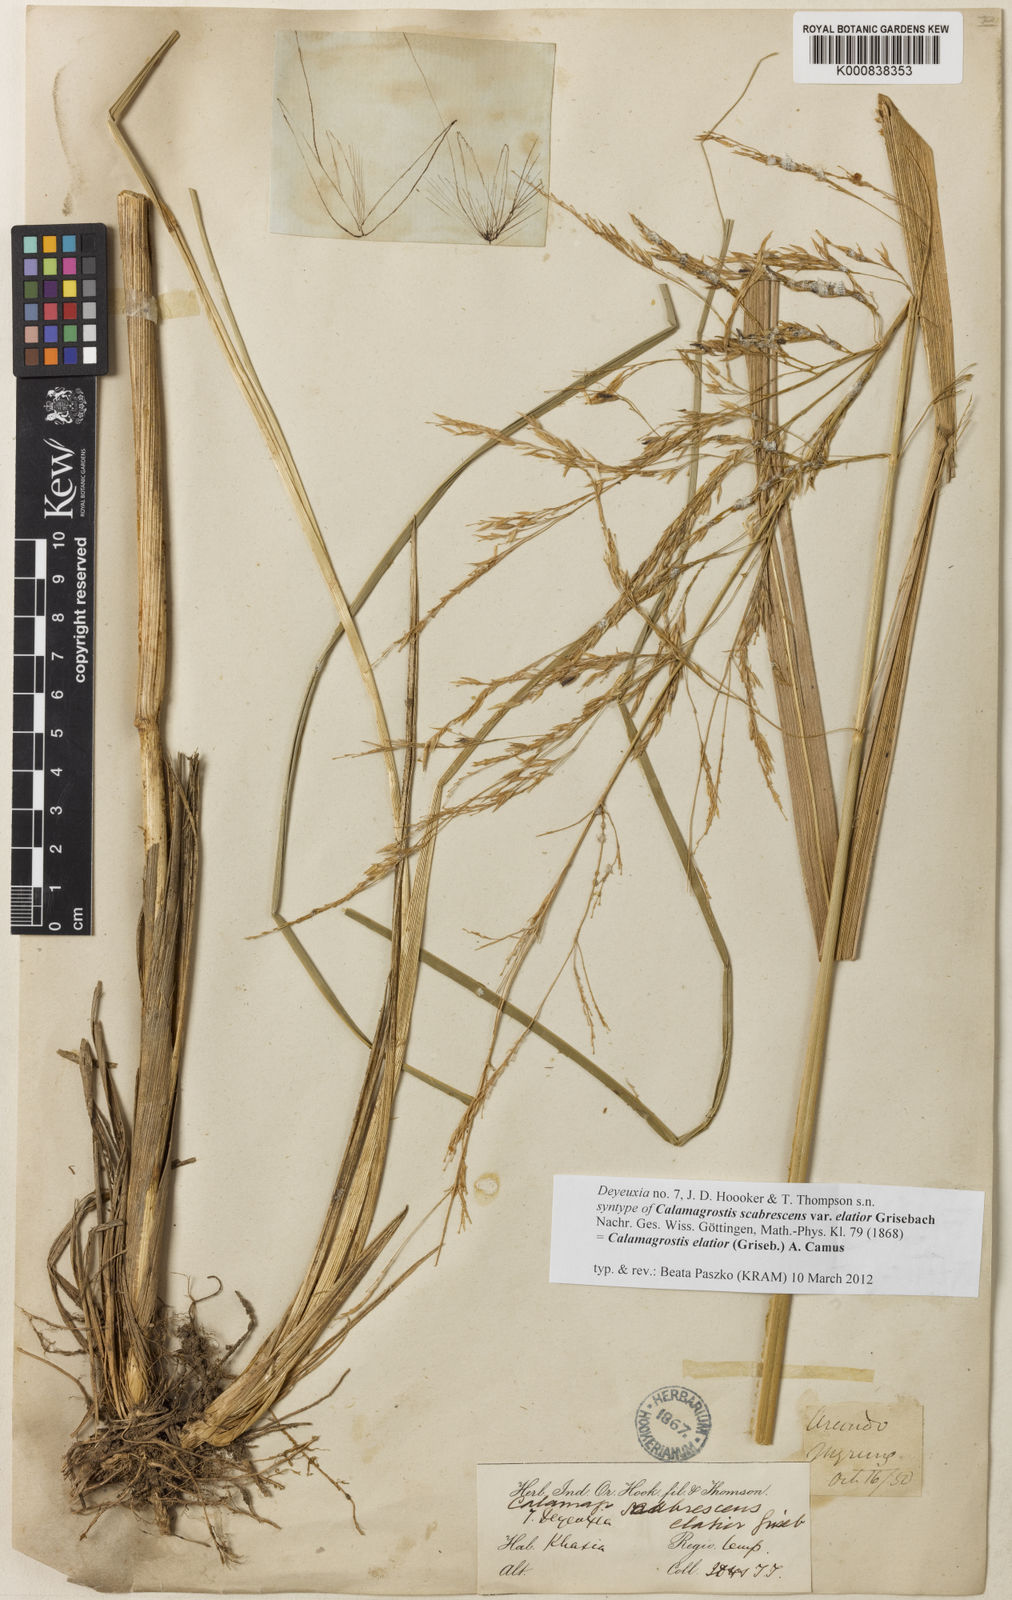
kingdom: Plantae
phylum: Tracheophyta
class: Liliopsida
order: Poales
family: Poaceae
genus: Calamagrostis
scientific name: Calamagrostis elatior
